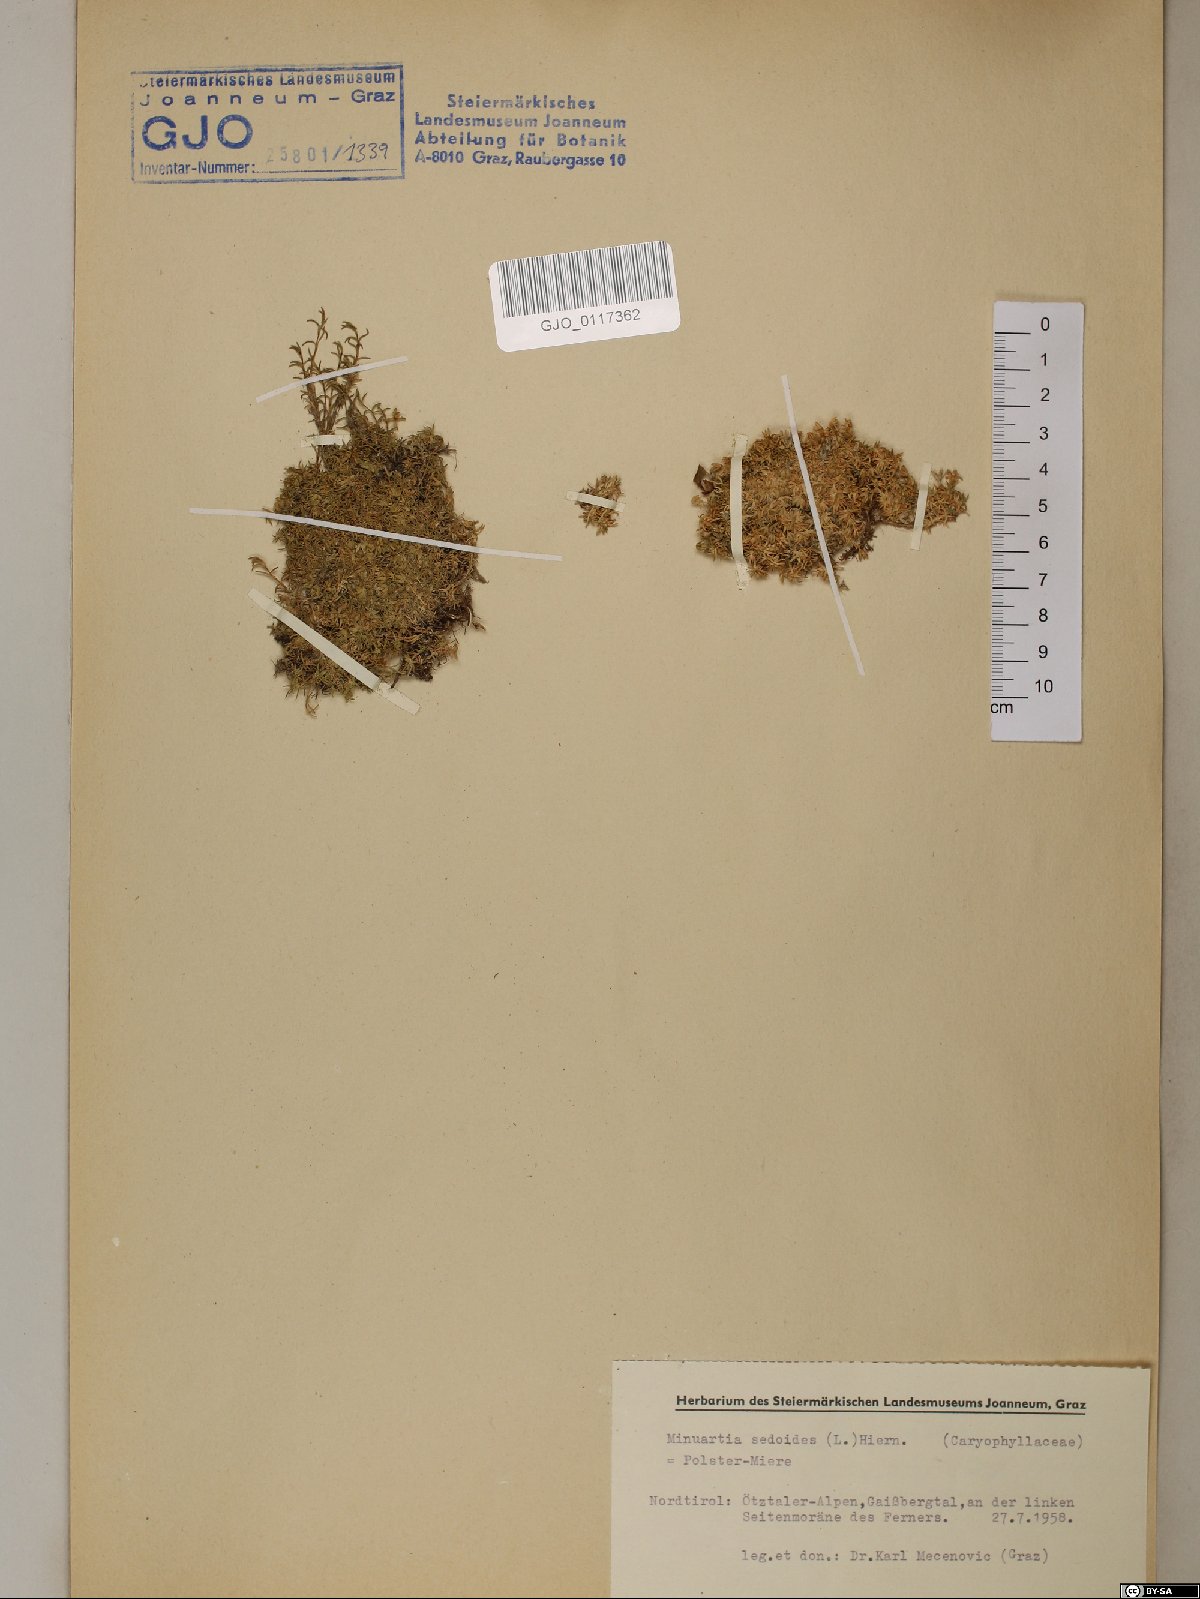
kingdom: Plantae
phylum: Tracheophyta
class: Magnoliopsida
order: Caryophyllales
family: Caryophyllaceae
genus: Cherleria
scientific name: Cherleria sedoides
